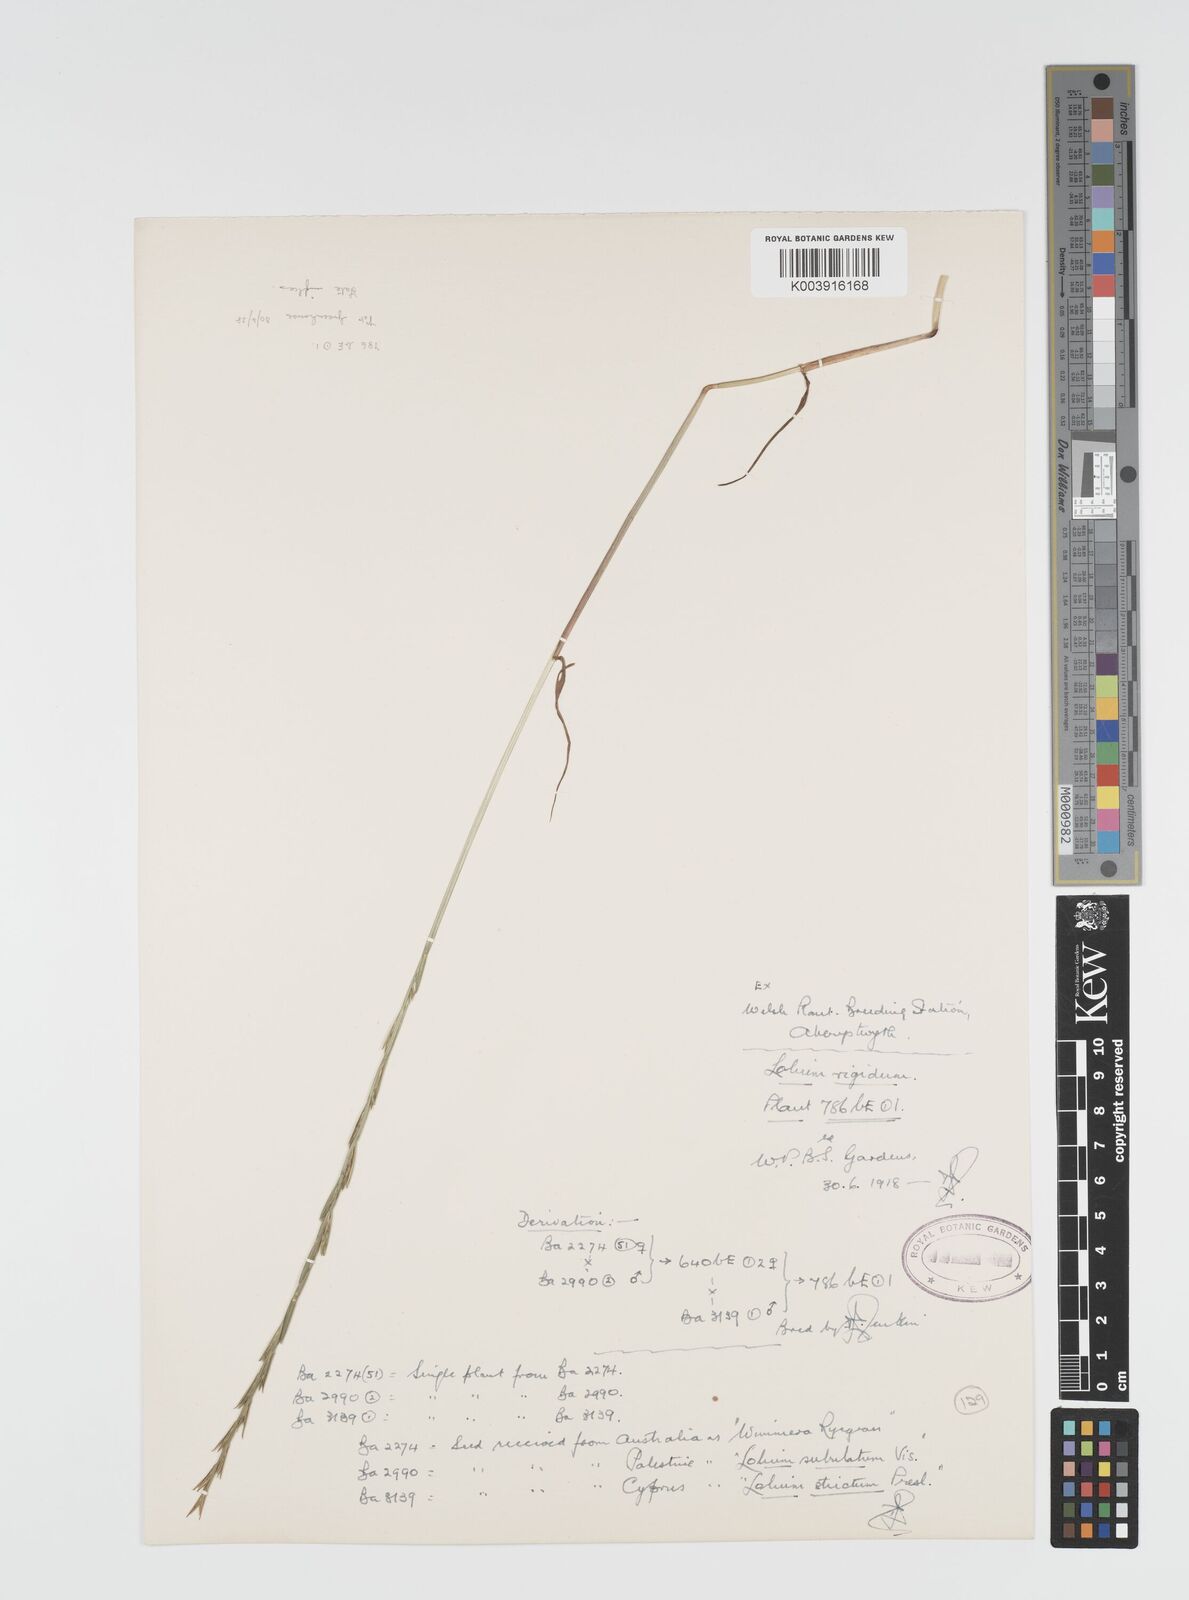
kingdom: Plantae
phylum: Tracheophyta
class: Liliopsida
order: Poales
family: Poaceae
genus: Lolium
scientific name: Lolium rigidum
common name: Wimmera ryegrass
